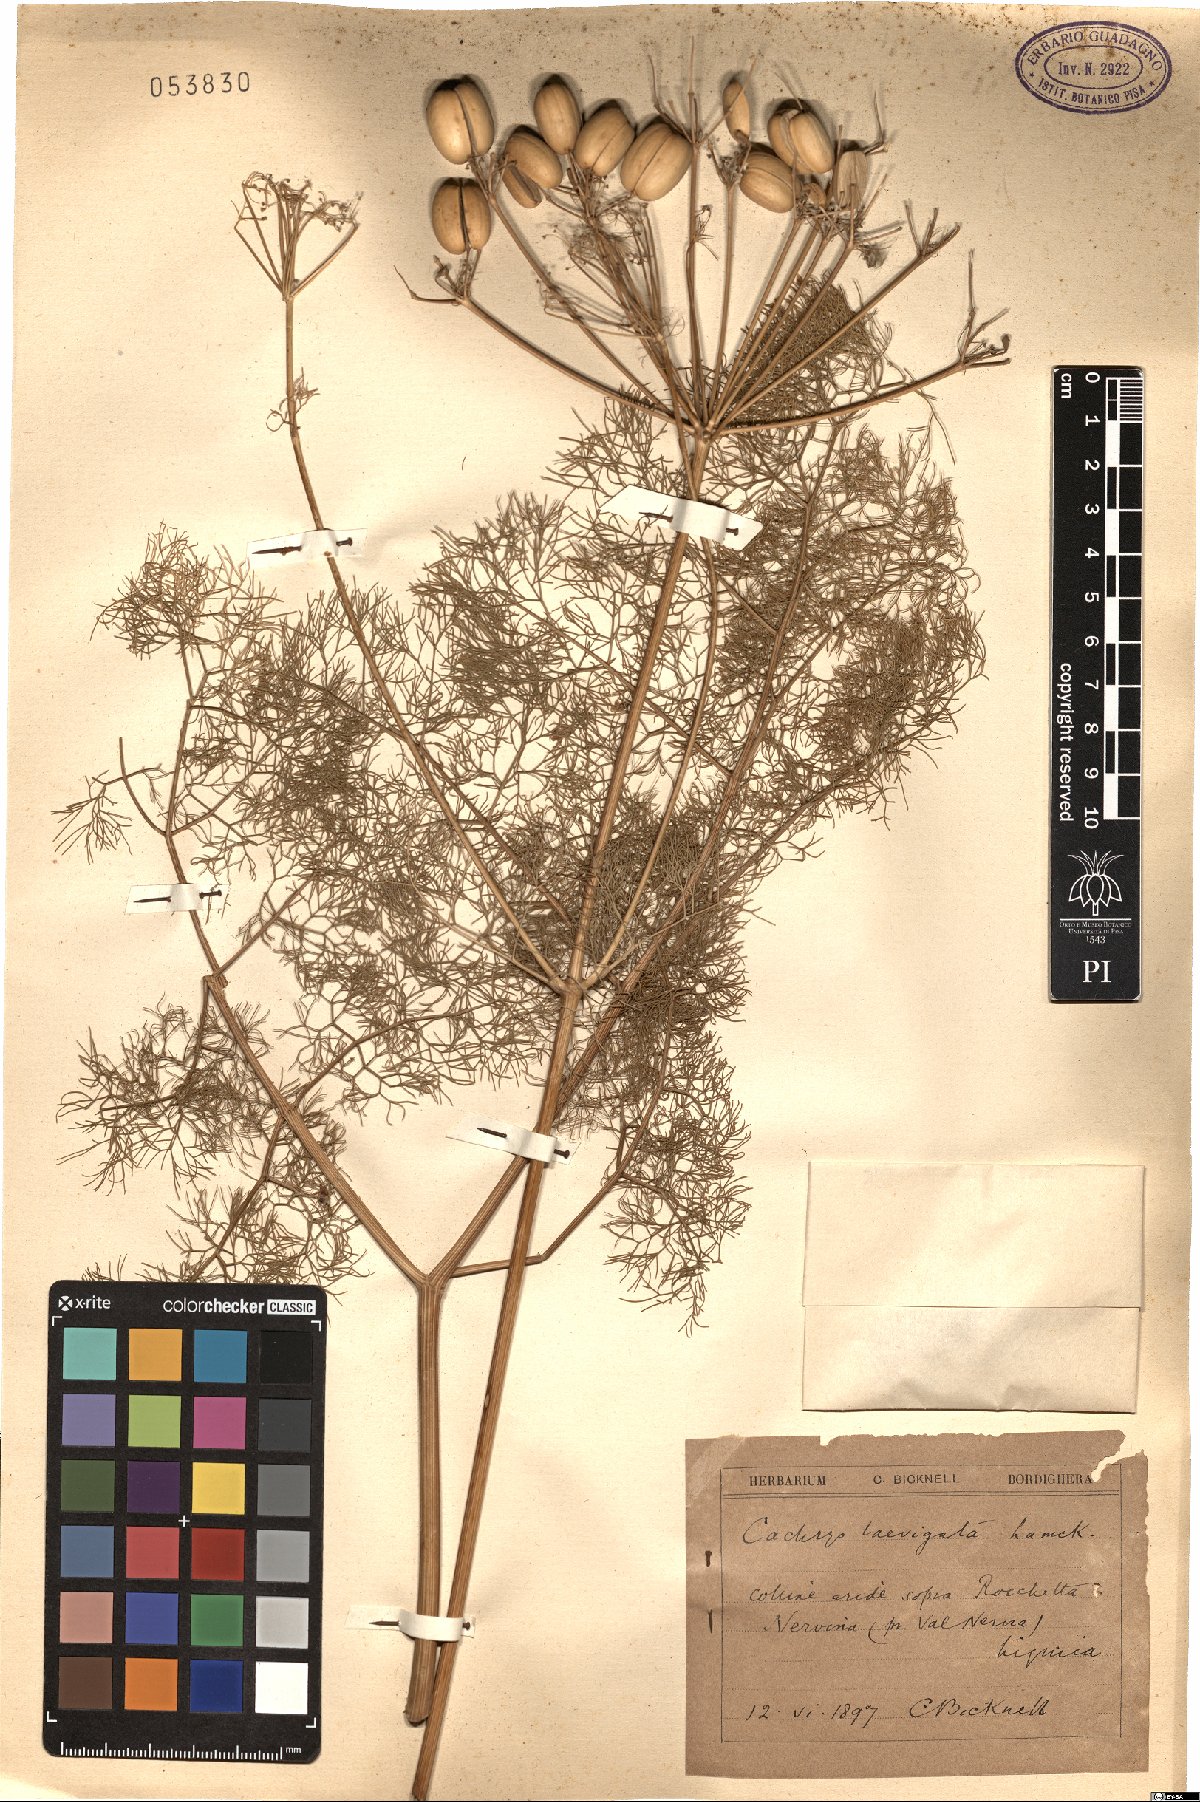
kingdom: Plantae
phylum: Tracheophyta
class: Magnoliopsida
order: Apiales
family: Apiaceae
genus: Prangos
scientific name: Prangos trifida
